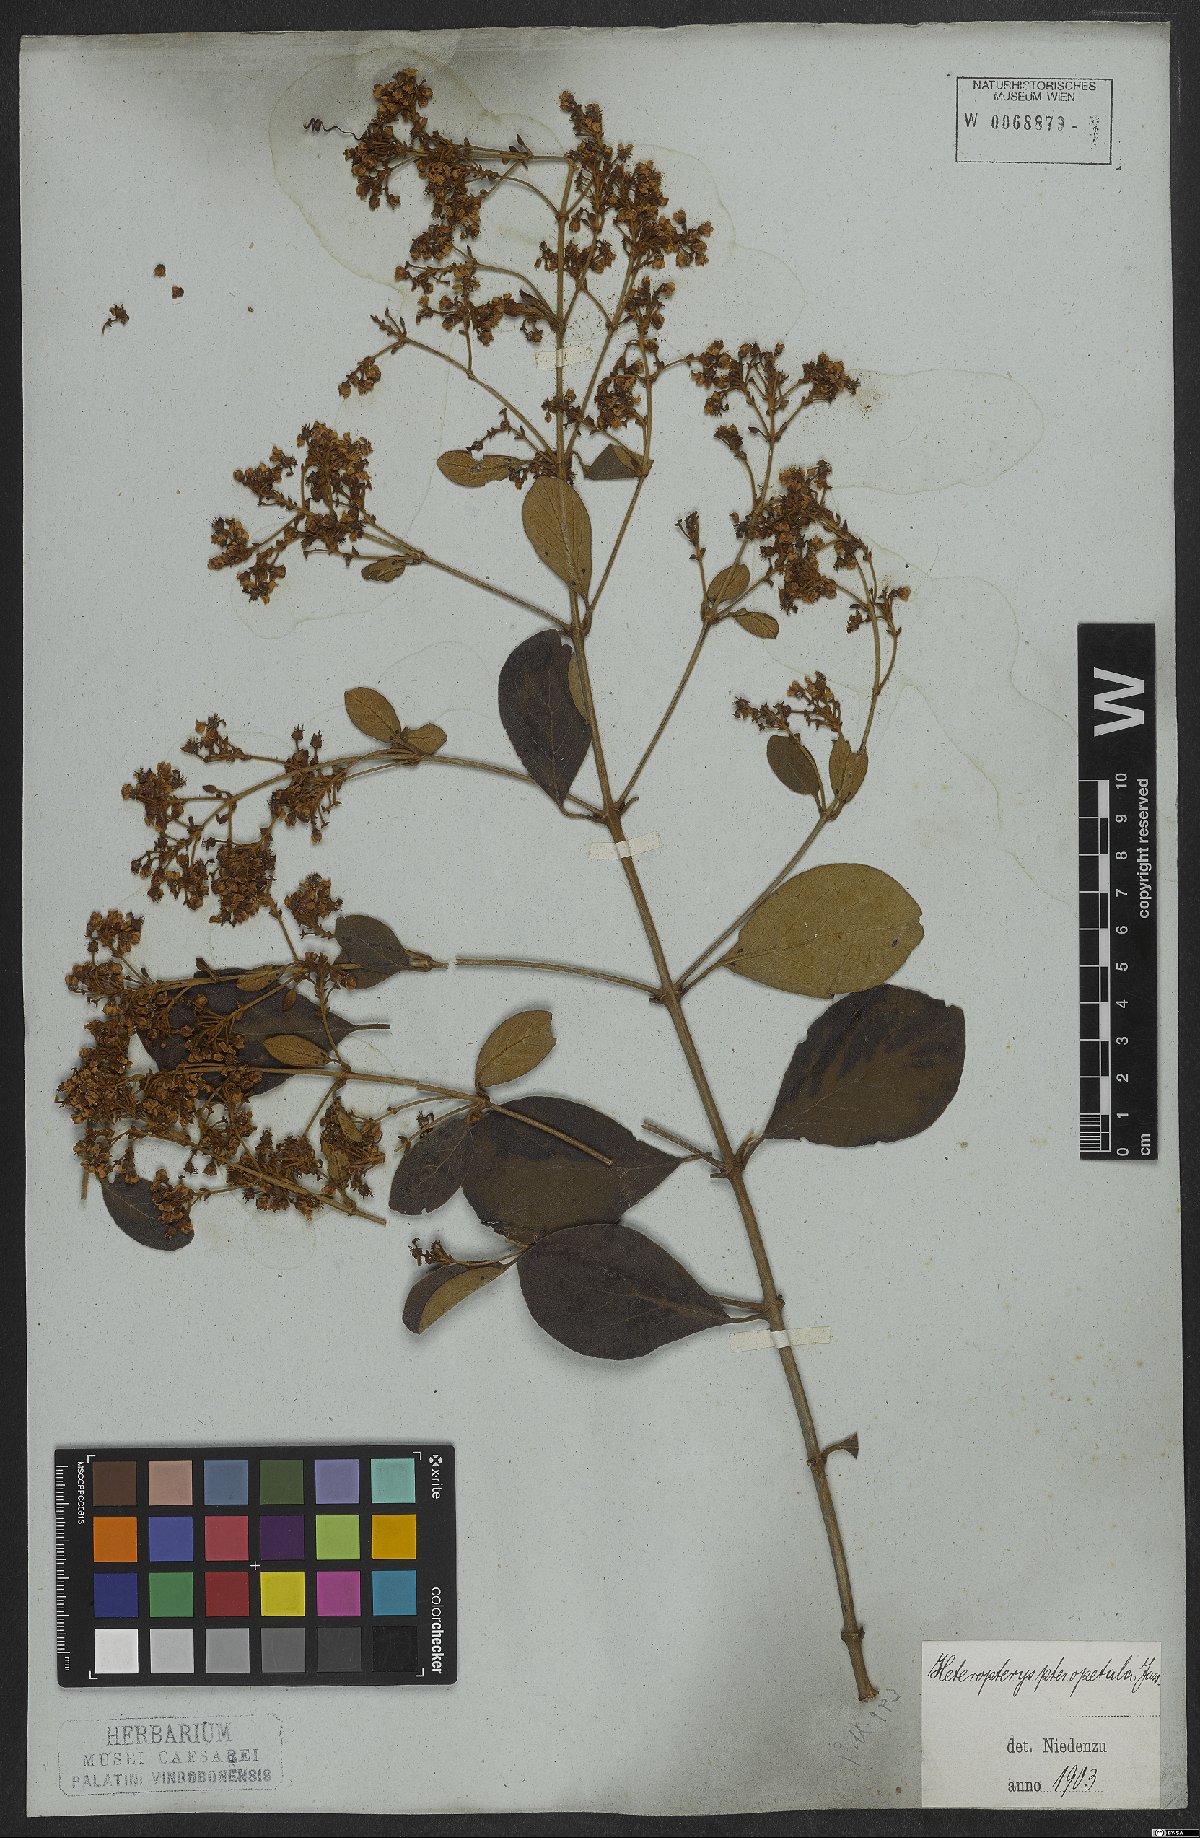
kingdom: Plantae
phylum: Tracheophyta
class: Magnoliopsida
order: Malpighiales
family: Malpighiaceae
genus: Heteropterys
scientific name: Heteropterys pteropetala
